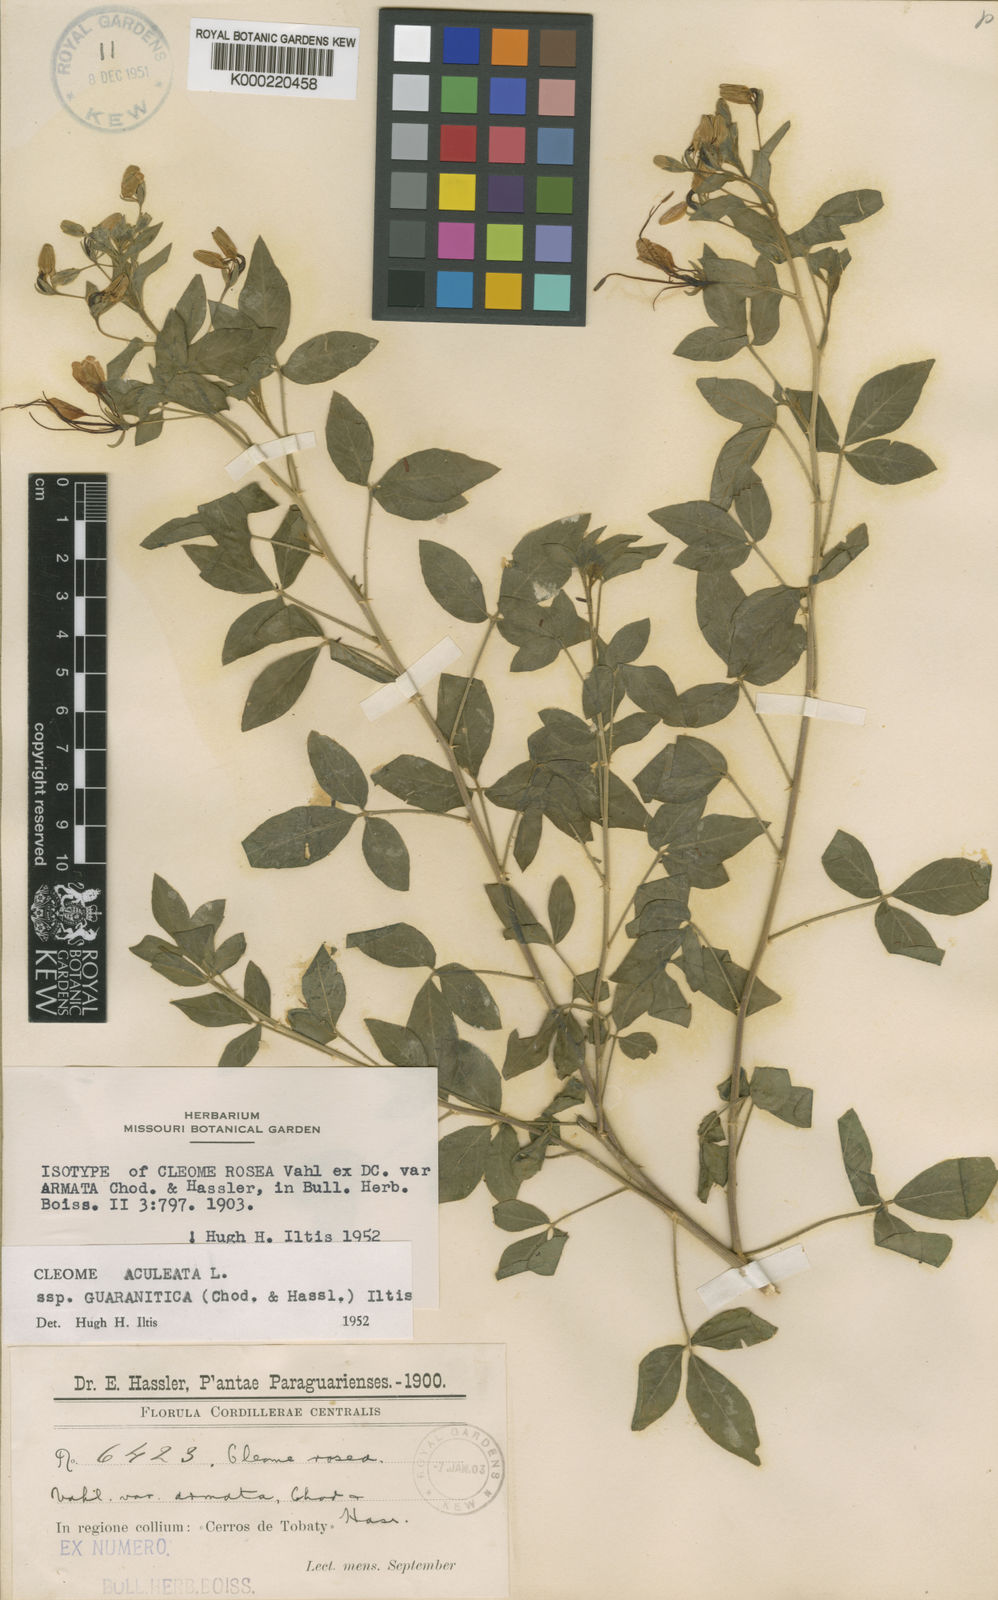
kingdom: Plantae
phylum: Tracheophyta
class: Magnoliopsida
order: Brassicales
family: Cleomaceae
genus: Tarenaya
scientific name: Tarenaya guaranitica
